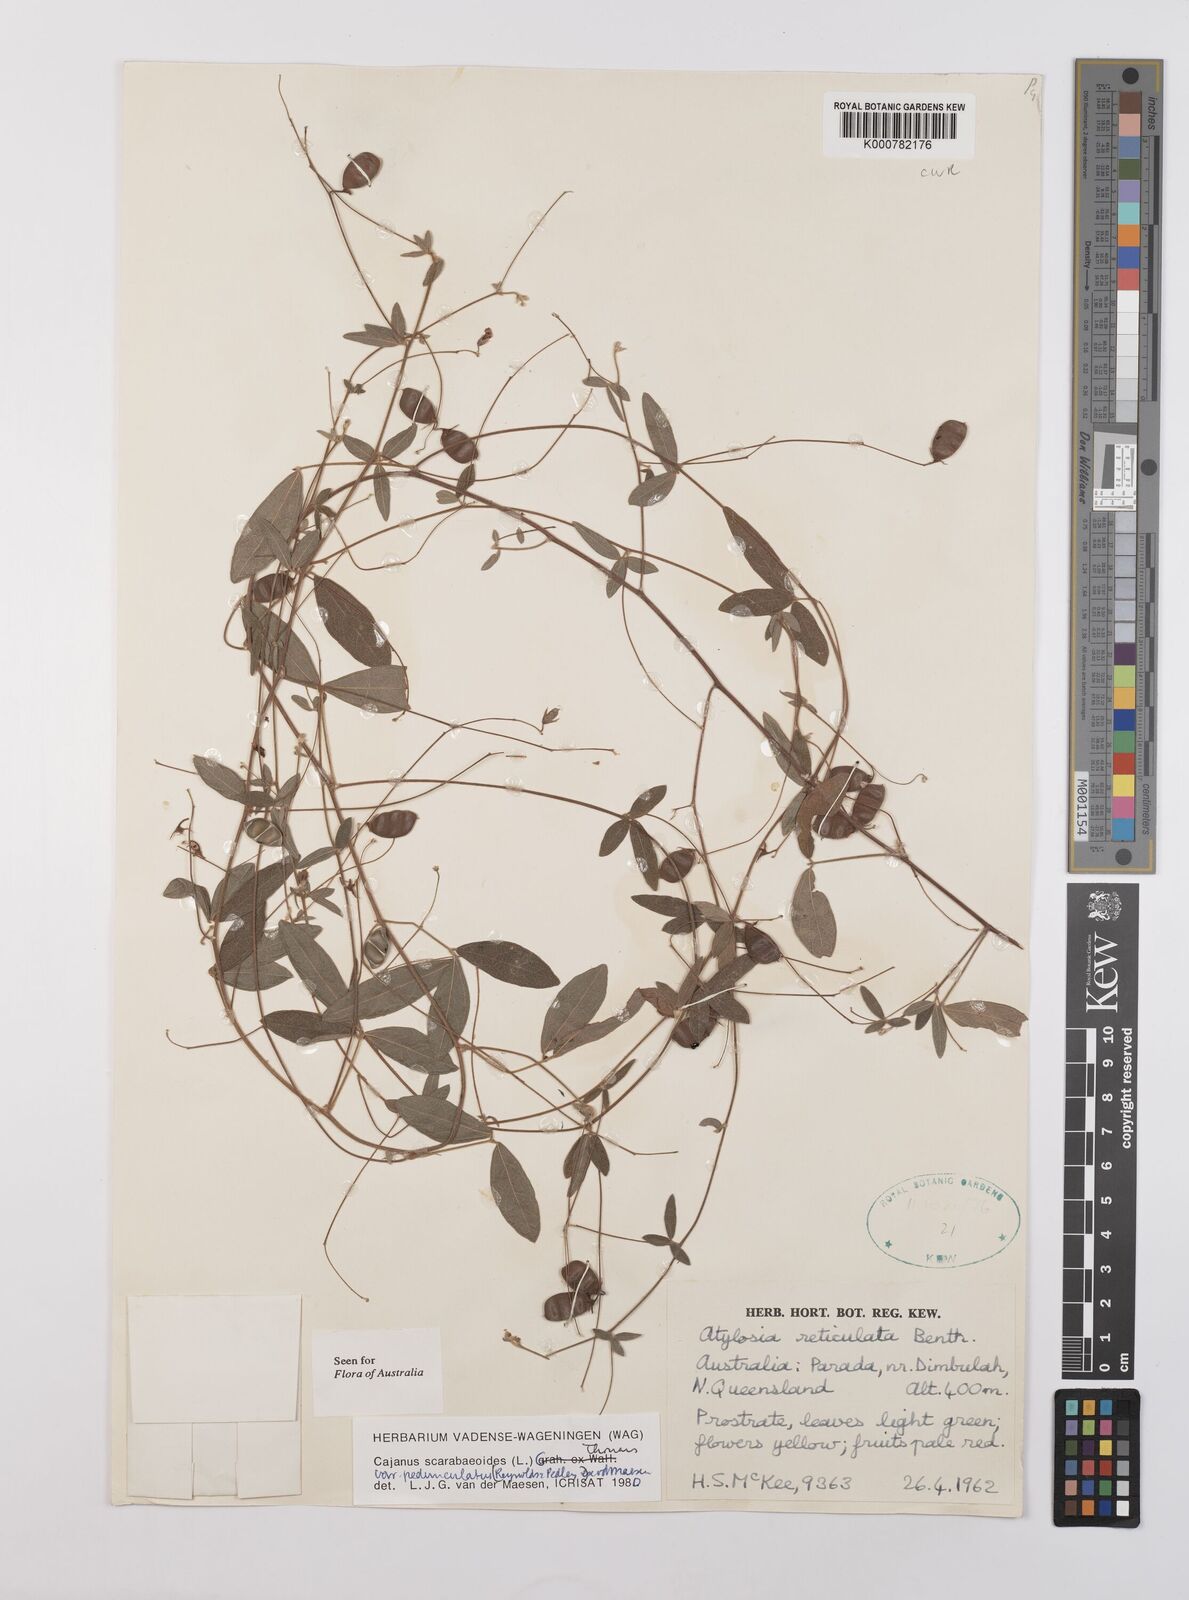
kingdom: Plantae
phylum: Tracheophyta
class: Magnoliopsida
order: Fabales
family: Fabaceae
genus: Cajanus
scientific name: Cajanus scarabaeoides
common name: Showy pigeonpea
